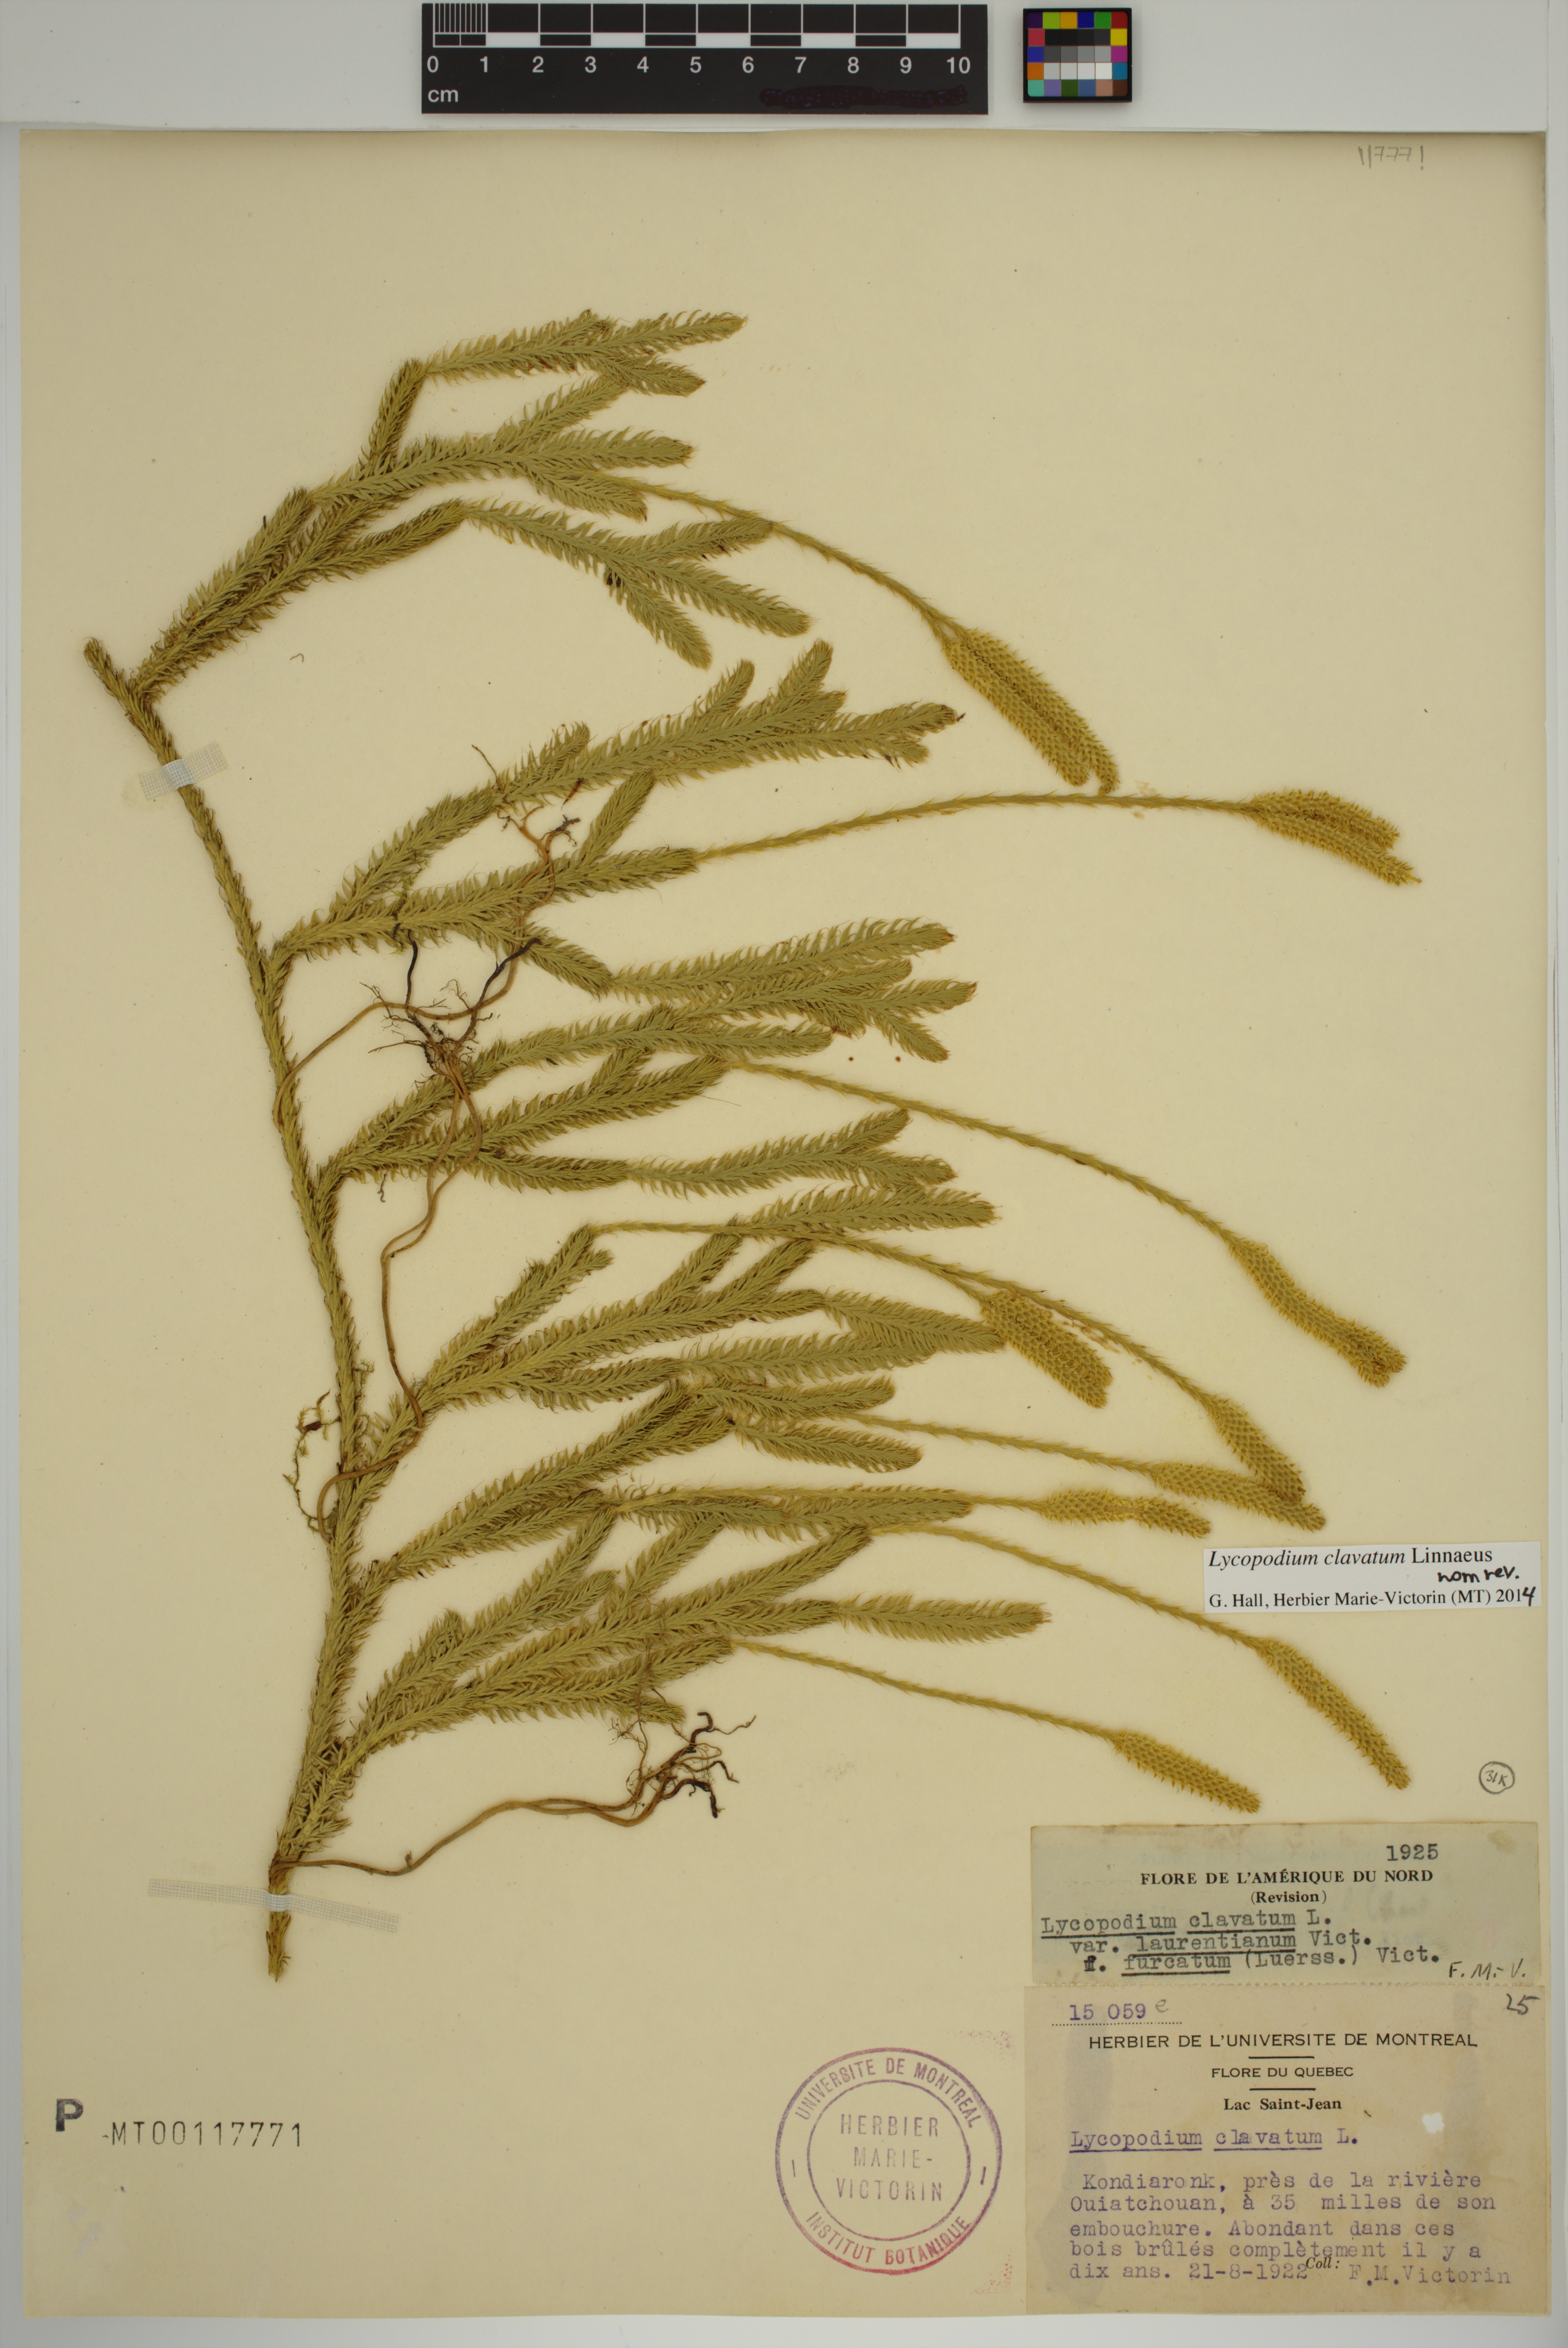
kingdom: Plantae
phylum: Tracheophyta
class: Lycopodiopsida
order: Lycopodiales
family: Lycopodiaceae
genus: Lycopodium
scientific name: Lycopodium clavatum
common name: Stag's-horn clubmoss
